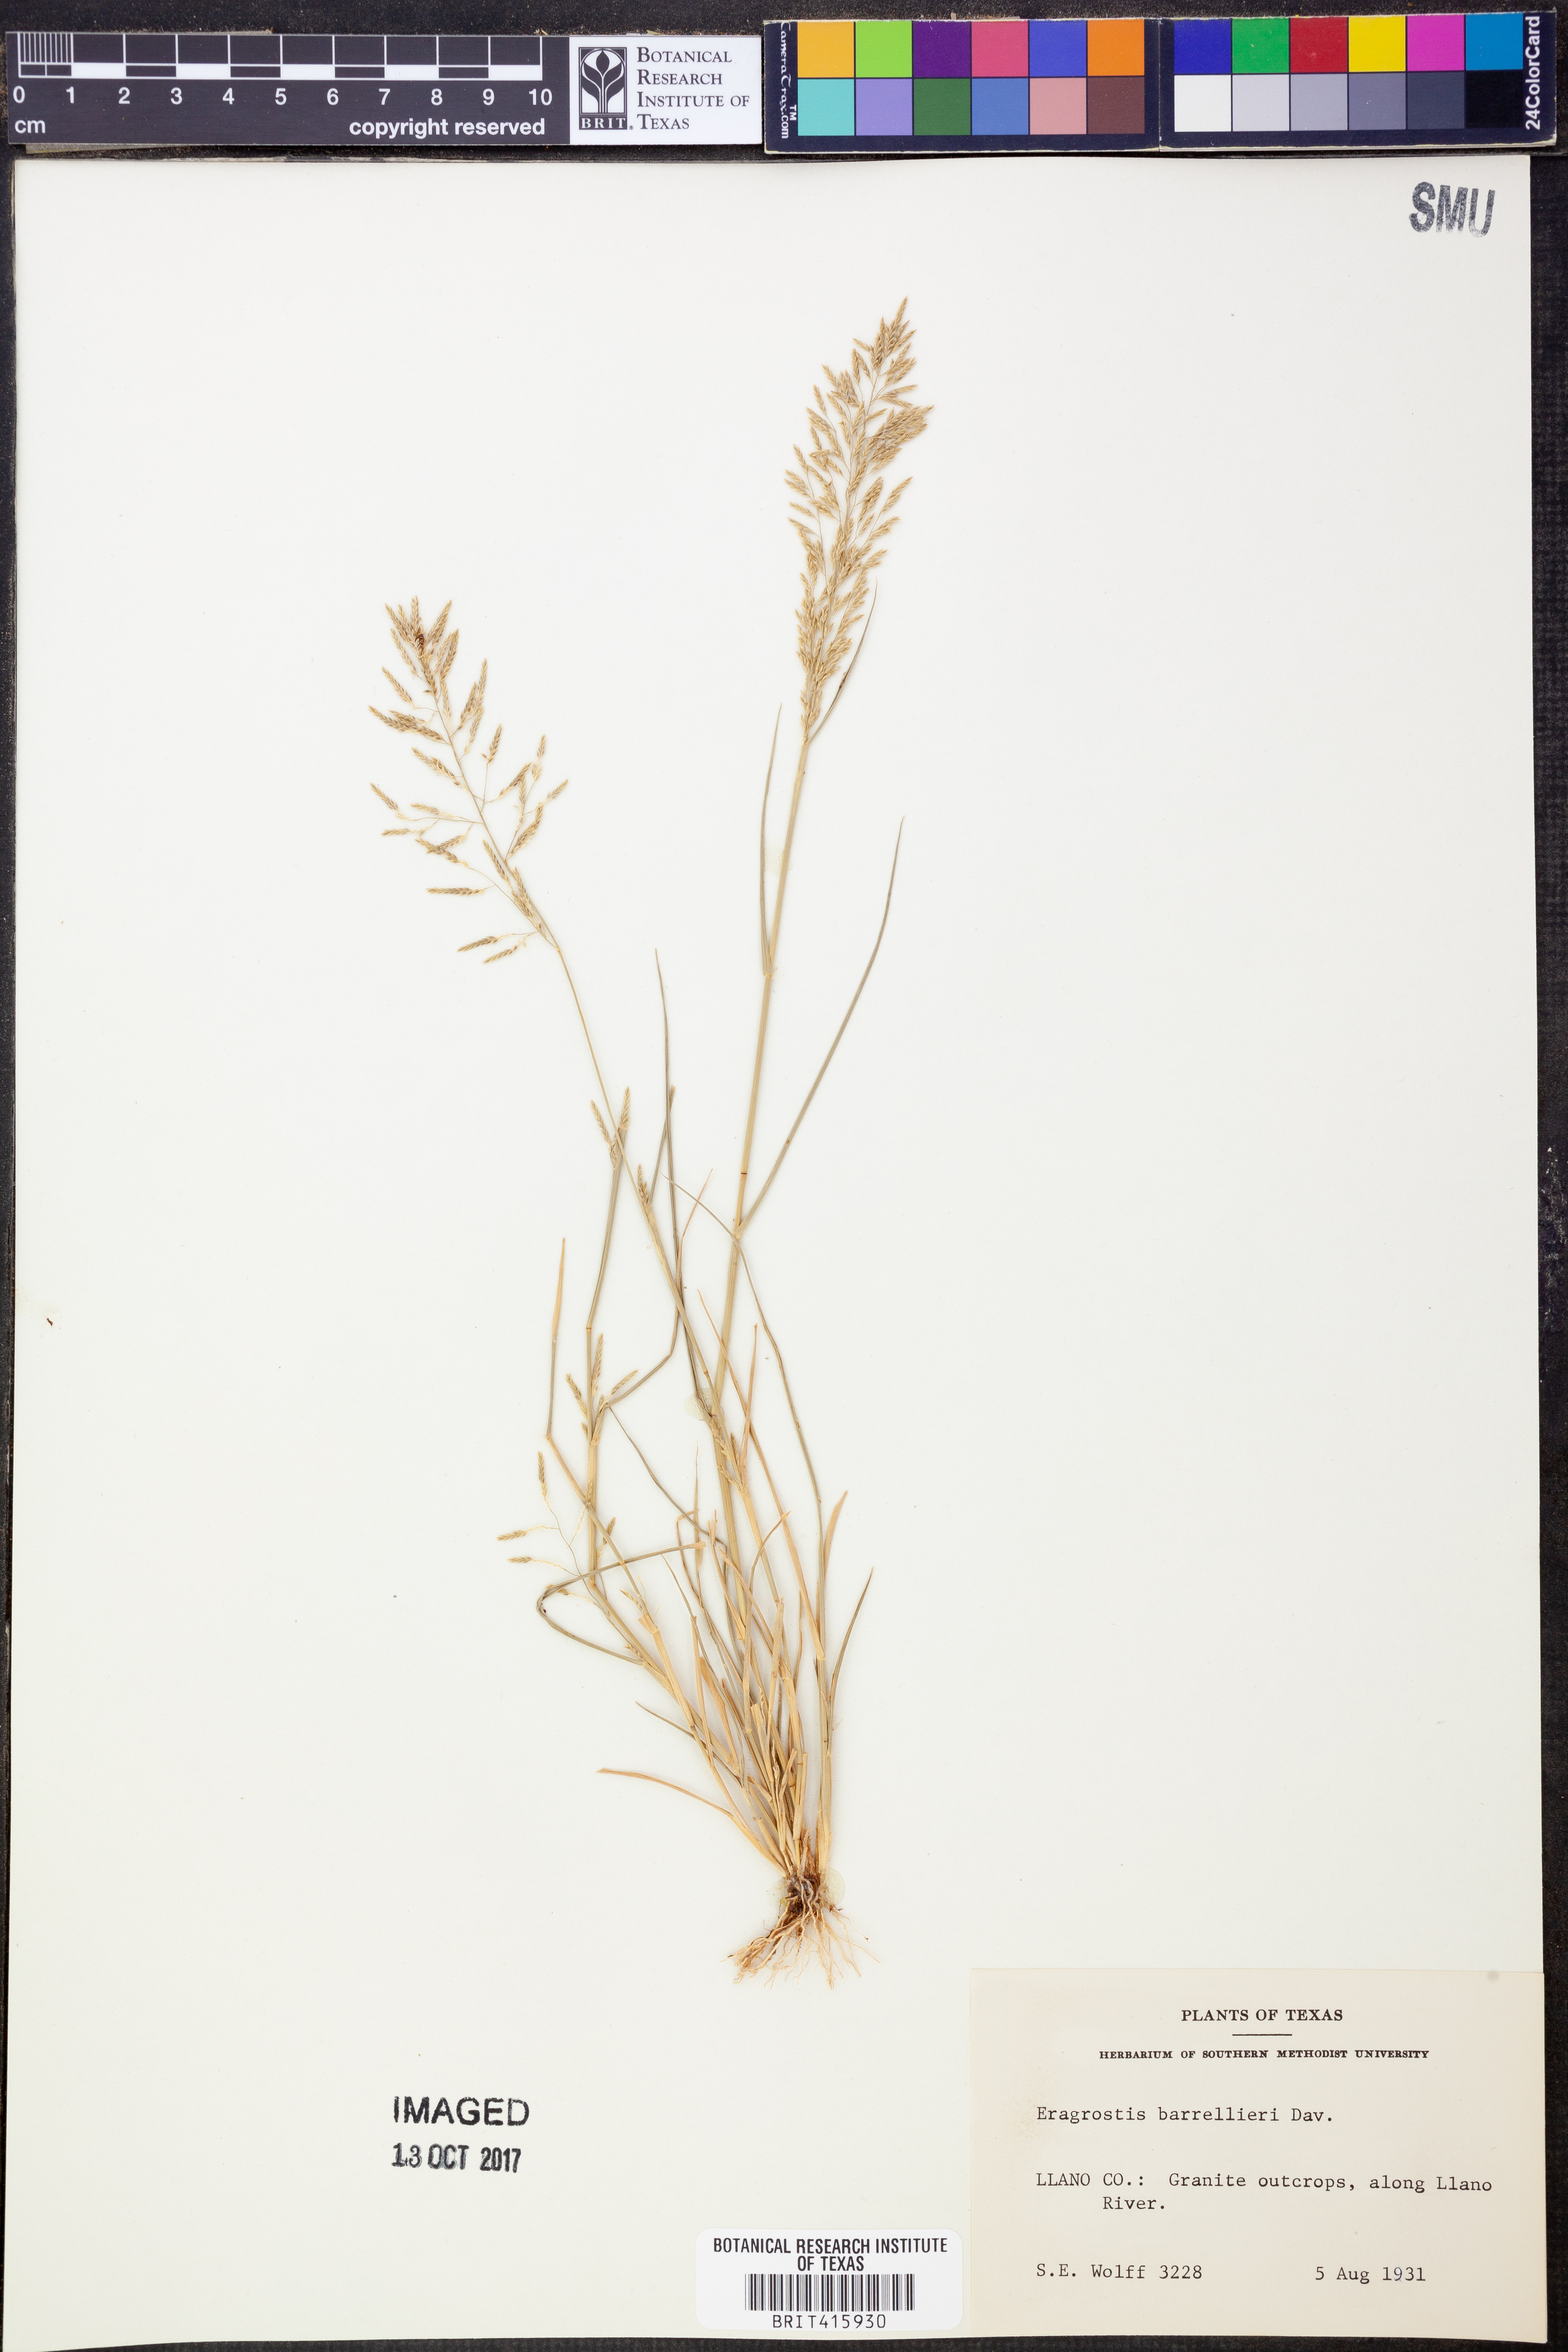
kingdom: Plantae
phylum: Tracheophyta
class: Liliopsida
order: Poales
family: Poaceae
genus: Eragrostis
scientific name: Eragrostis barrelieri
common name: Mediterranean lovegrass
